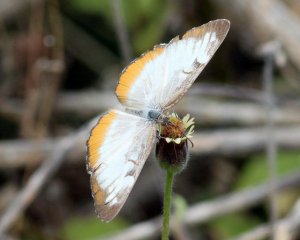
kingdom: Animalia
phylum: Arthropoda
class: Insecta
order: Lepidoptera
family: Nymphalidae
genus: Mestra
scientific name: Mestra amymone
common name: Common Mestra
